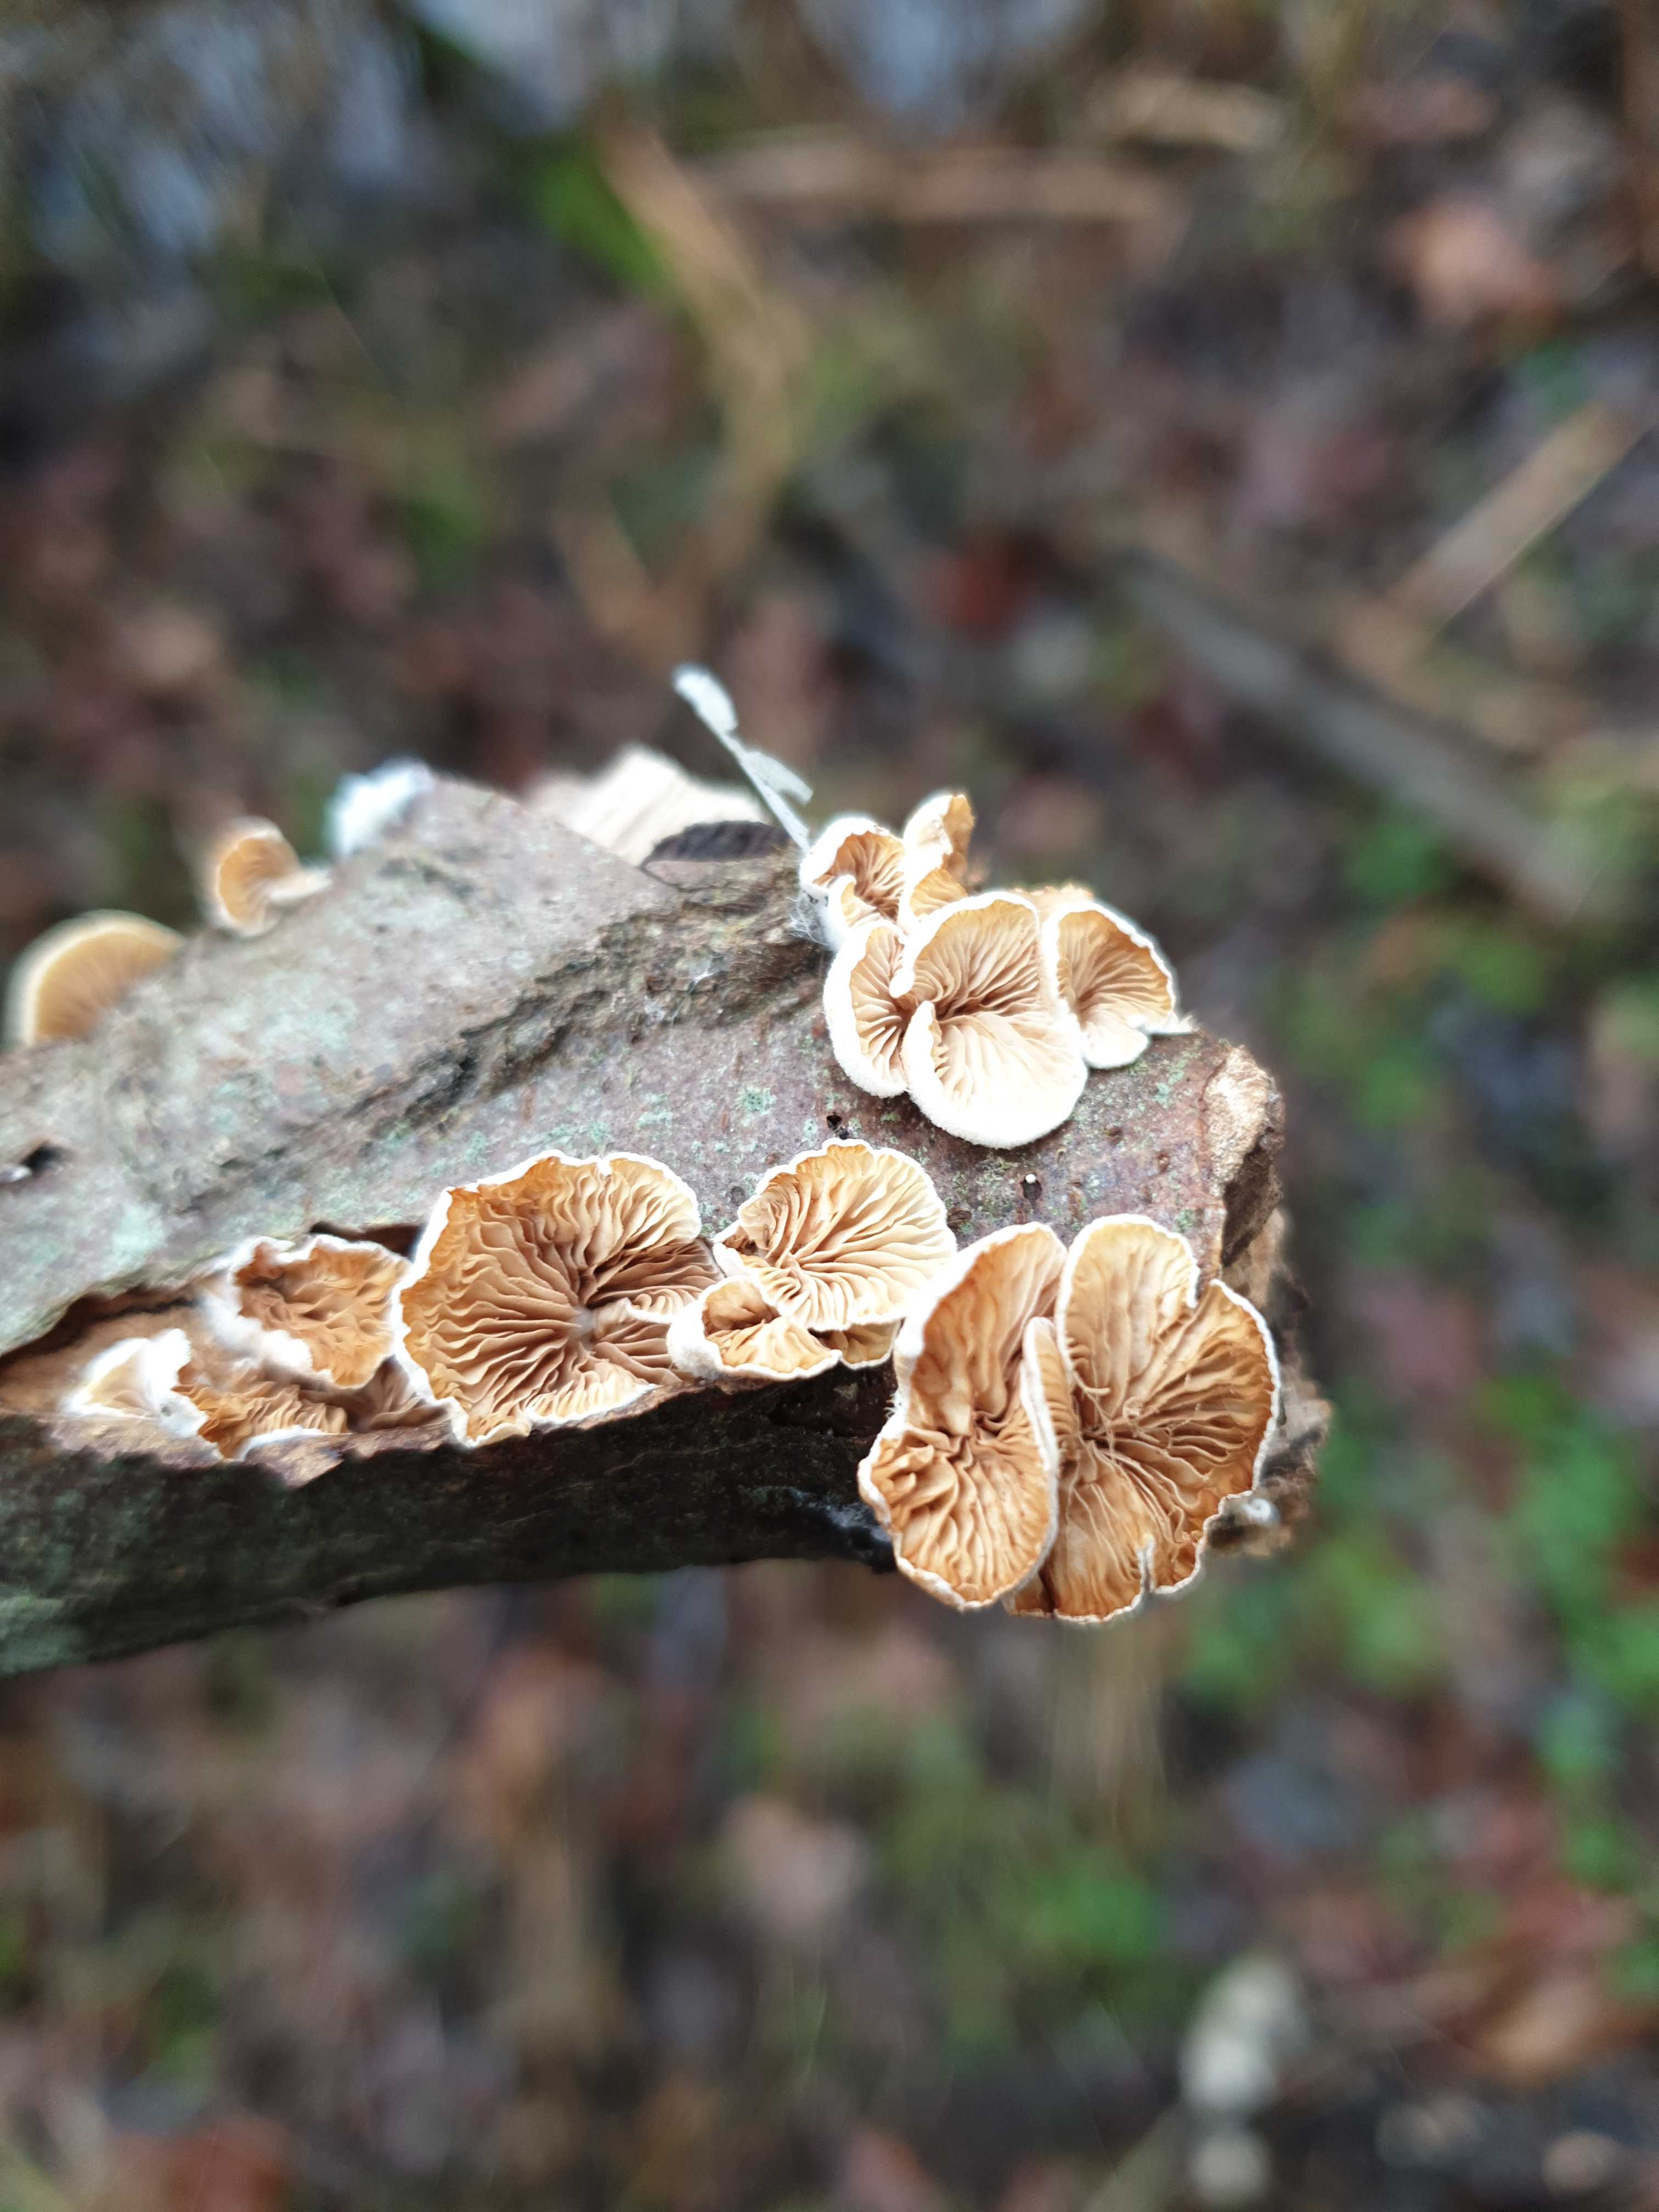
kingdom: Fungi
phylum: Basidiomycota
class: Agaricomycetes
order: Agaricales
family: Crepidotaceae
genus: Crepidotus
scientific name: Crepidotus
